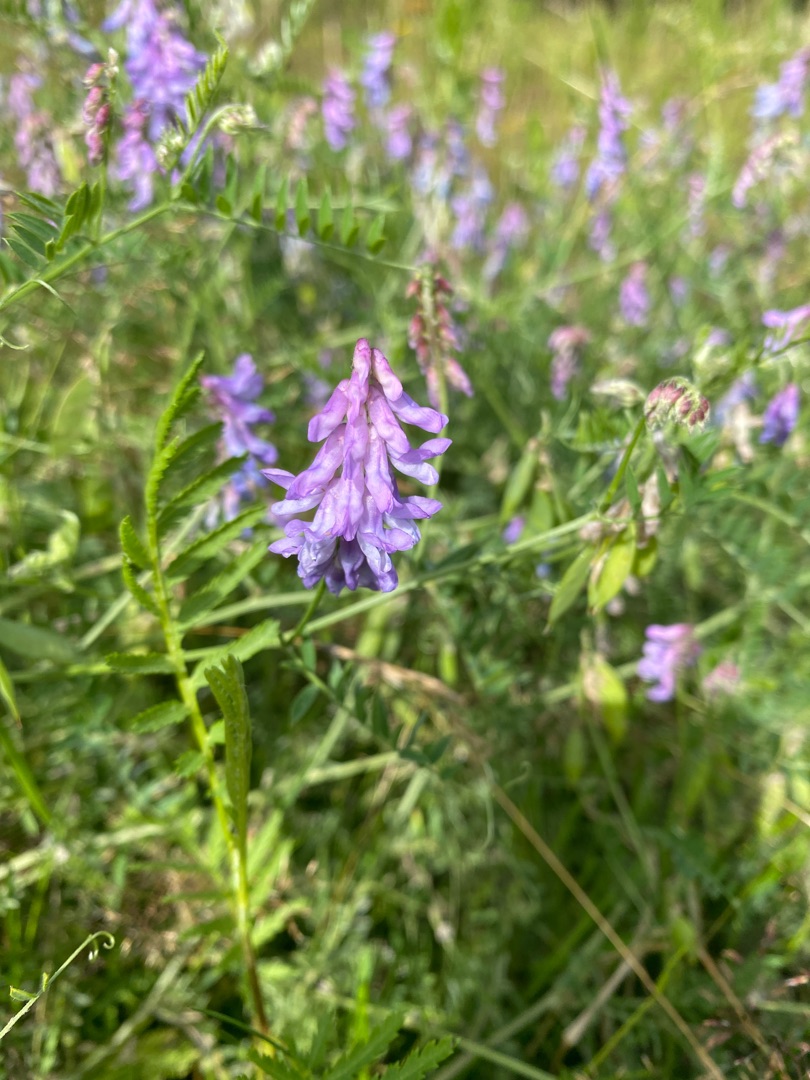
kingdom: Plantae
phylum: Tracheophyta
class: Magnoliopsida
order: Fabales
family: Fabaceae
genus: Vicia
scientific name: Vicia cracca
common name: Muse-vikke
